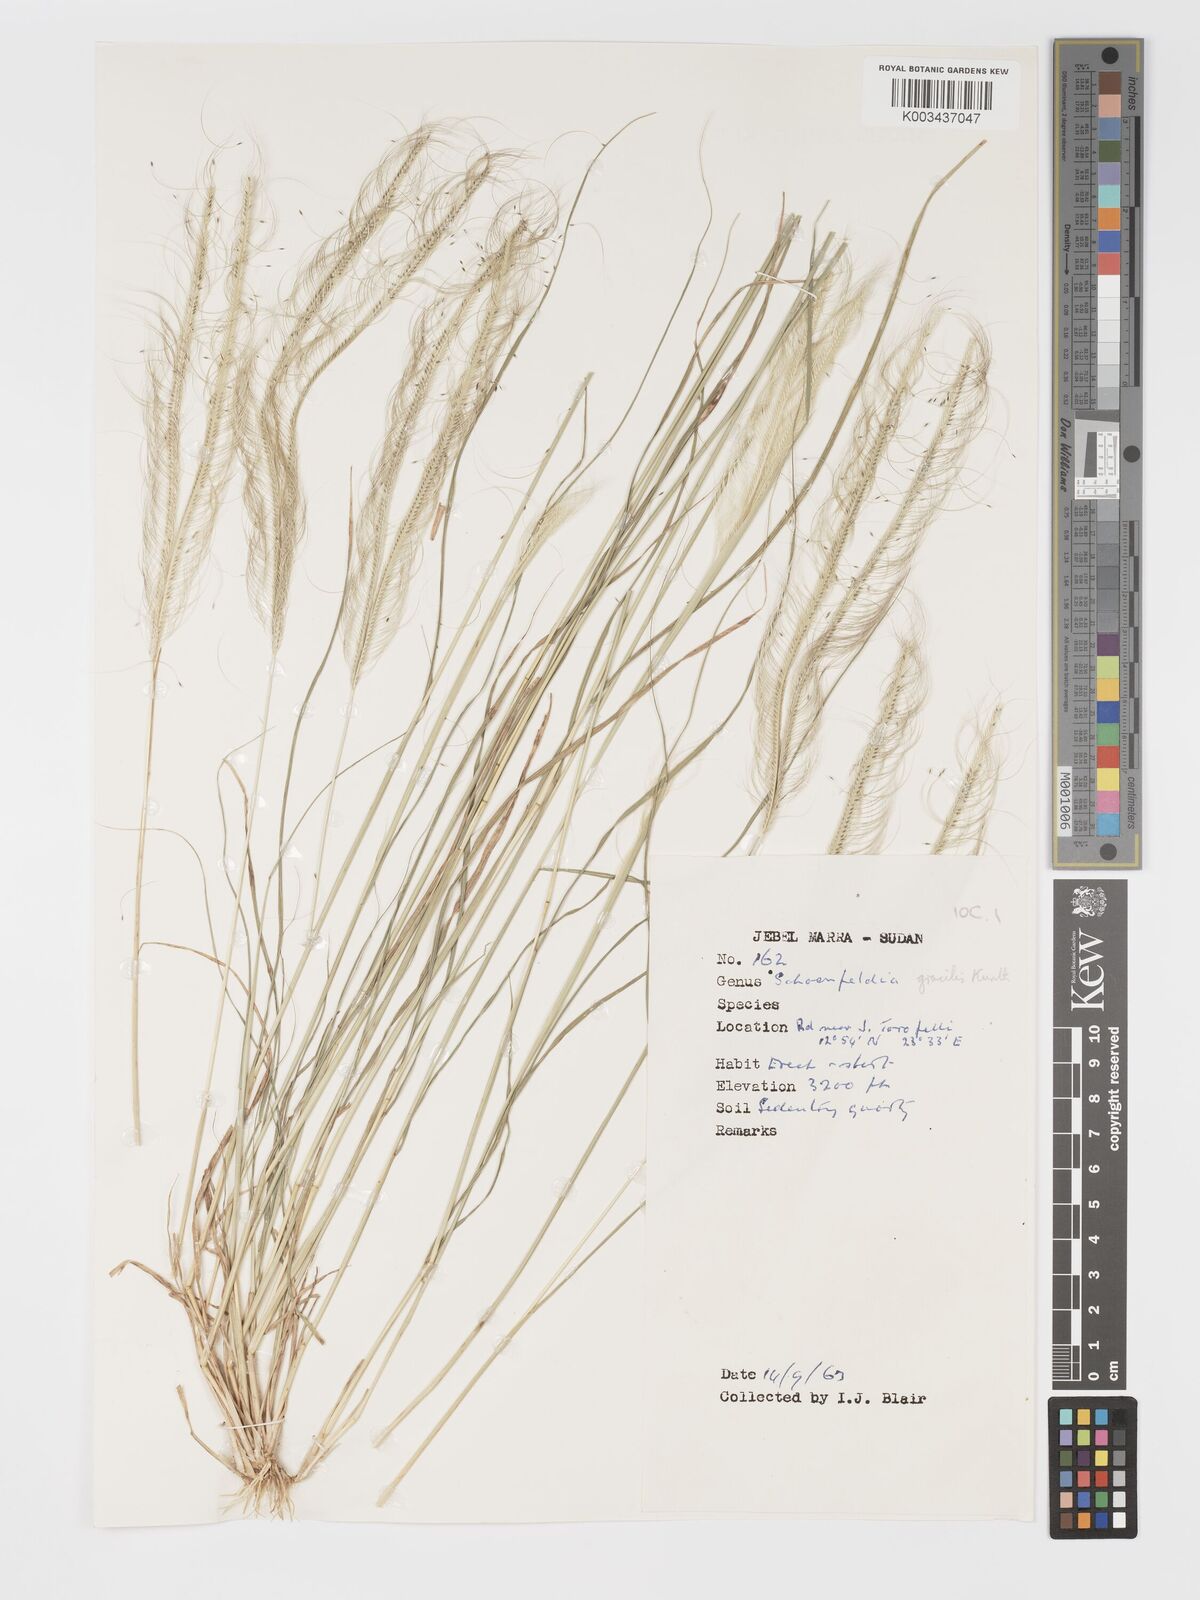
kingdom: Plantae
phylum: Tracheophyta
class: Liliopsida
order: Poales
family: Poaceae
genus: Schoenefeldia
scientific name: Schoenefeldia gracilis
